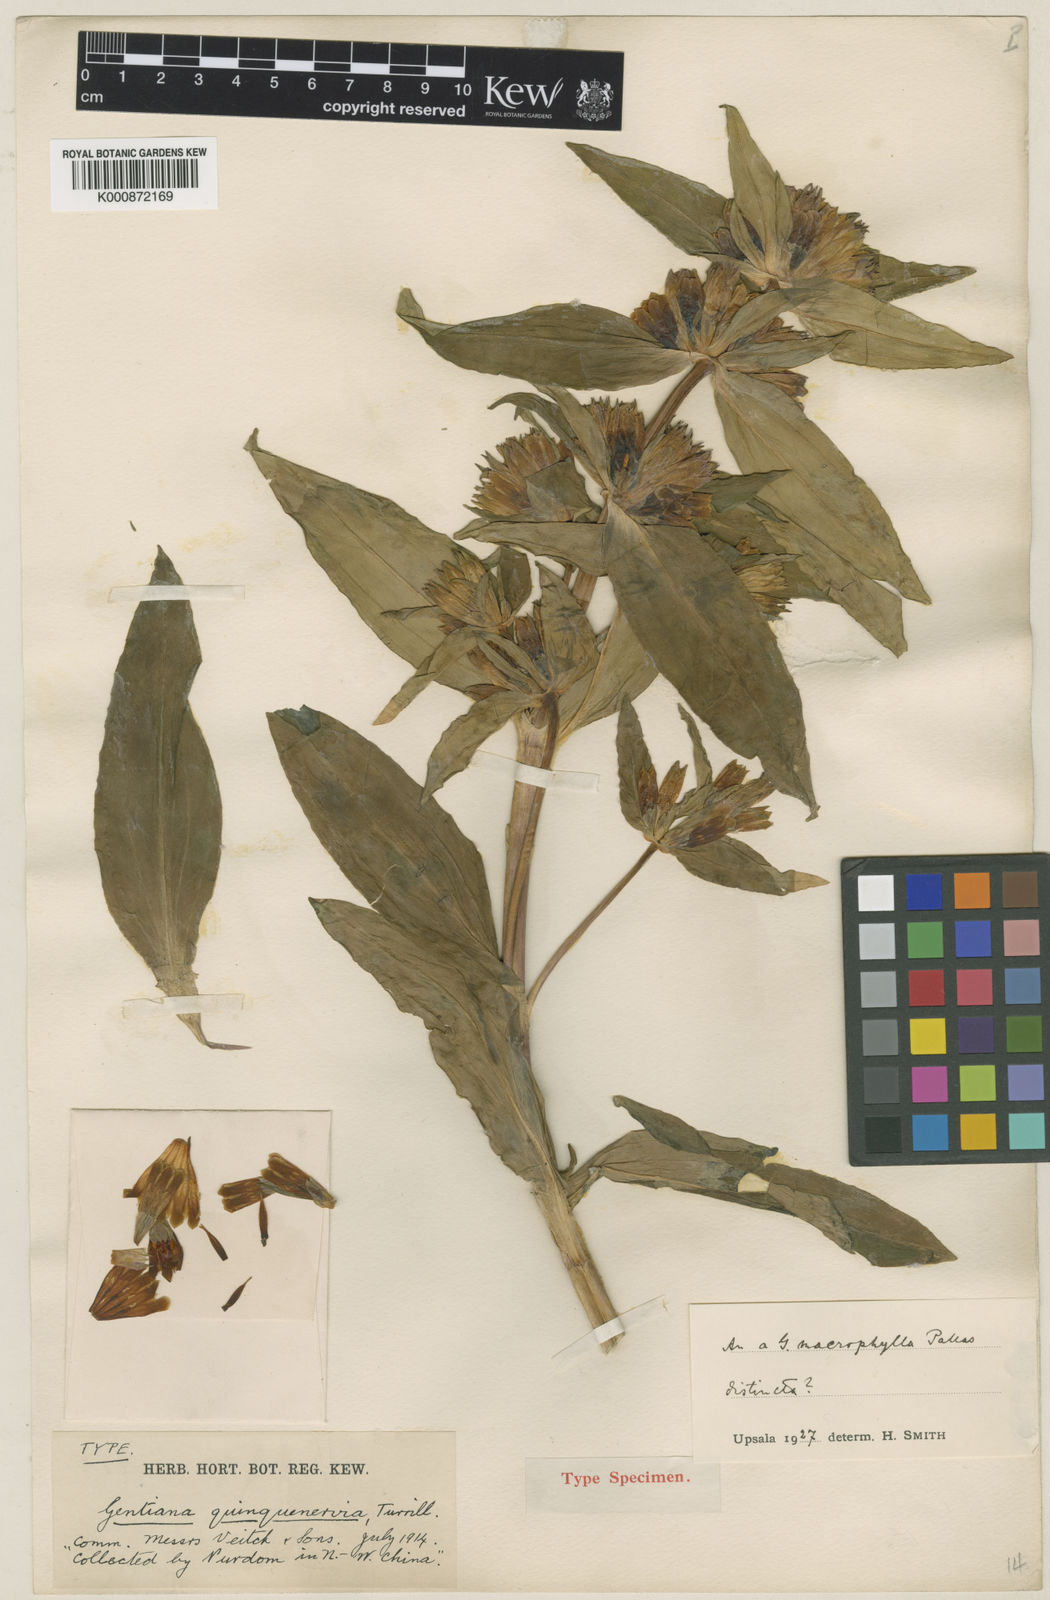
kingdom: Plantae
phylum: Tracheophyta
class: Magnoliopsida
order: Gentianales
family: Gentianaceae
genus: Gentiana
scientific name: Gentiana macrophylla
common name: Large-leaf gentian
